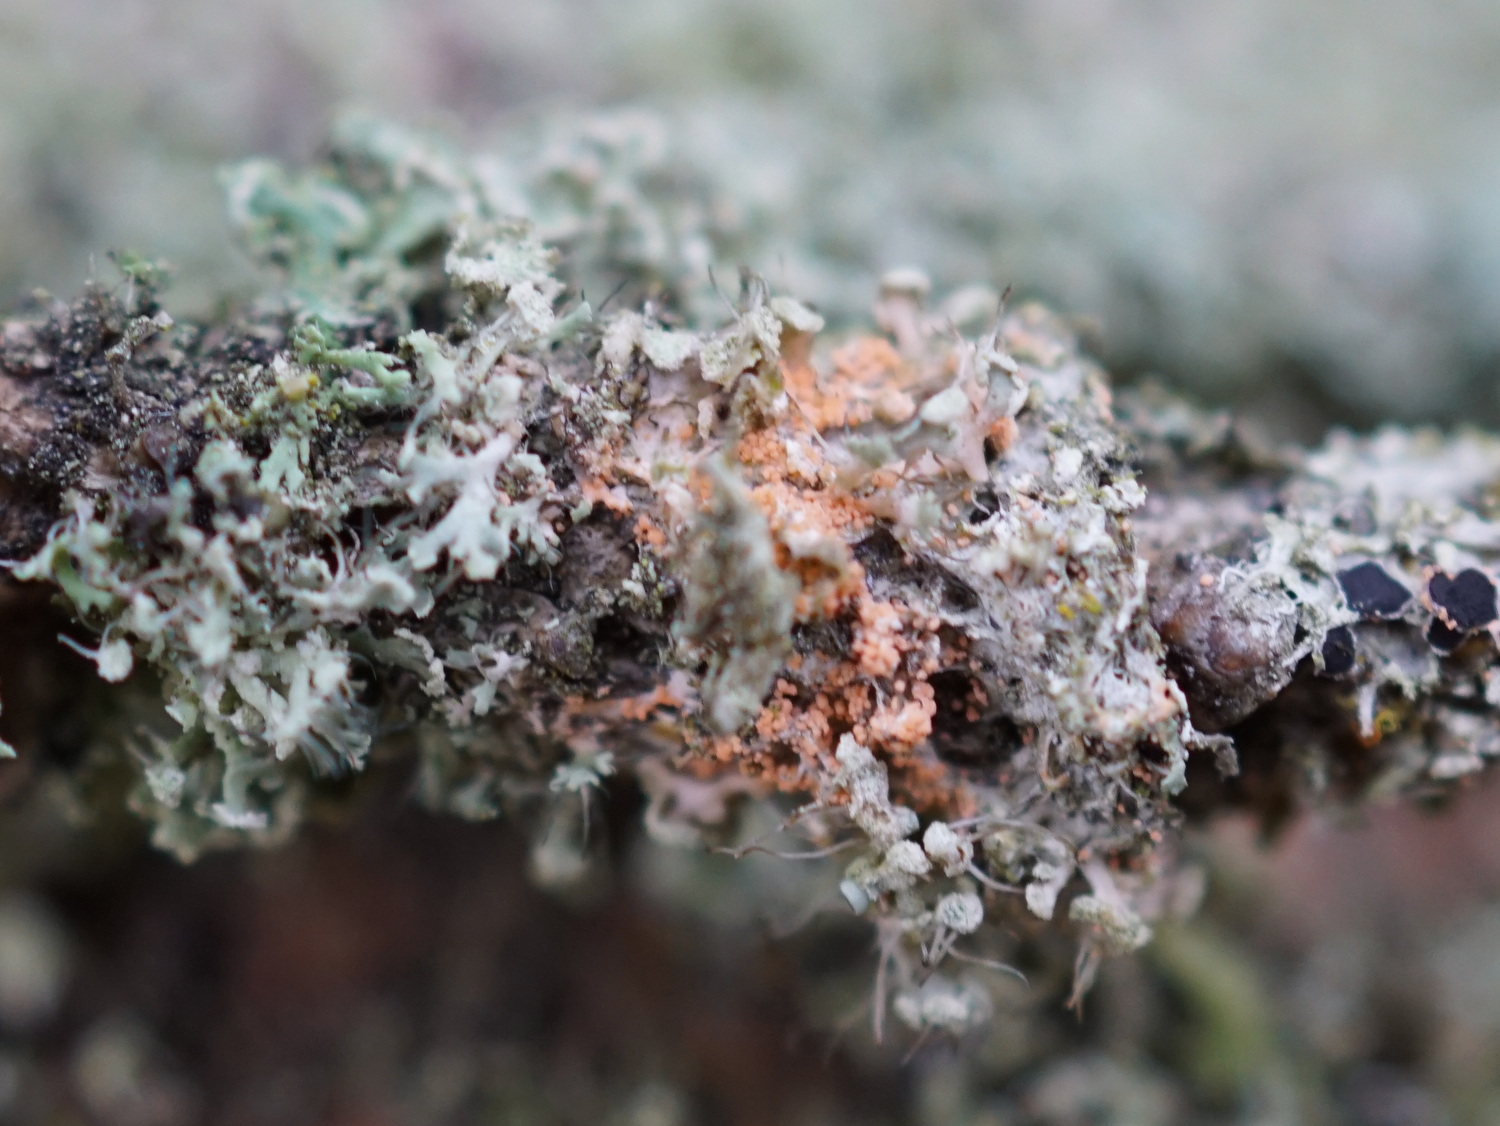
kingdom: Fungi
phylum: Basidiomycota
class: Agaricomycetes
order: Corticiales
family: Corticiaceae
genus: Erythricium
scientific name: Erythricium aurantiacum
